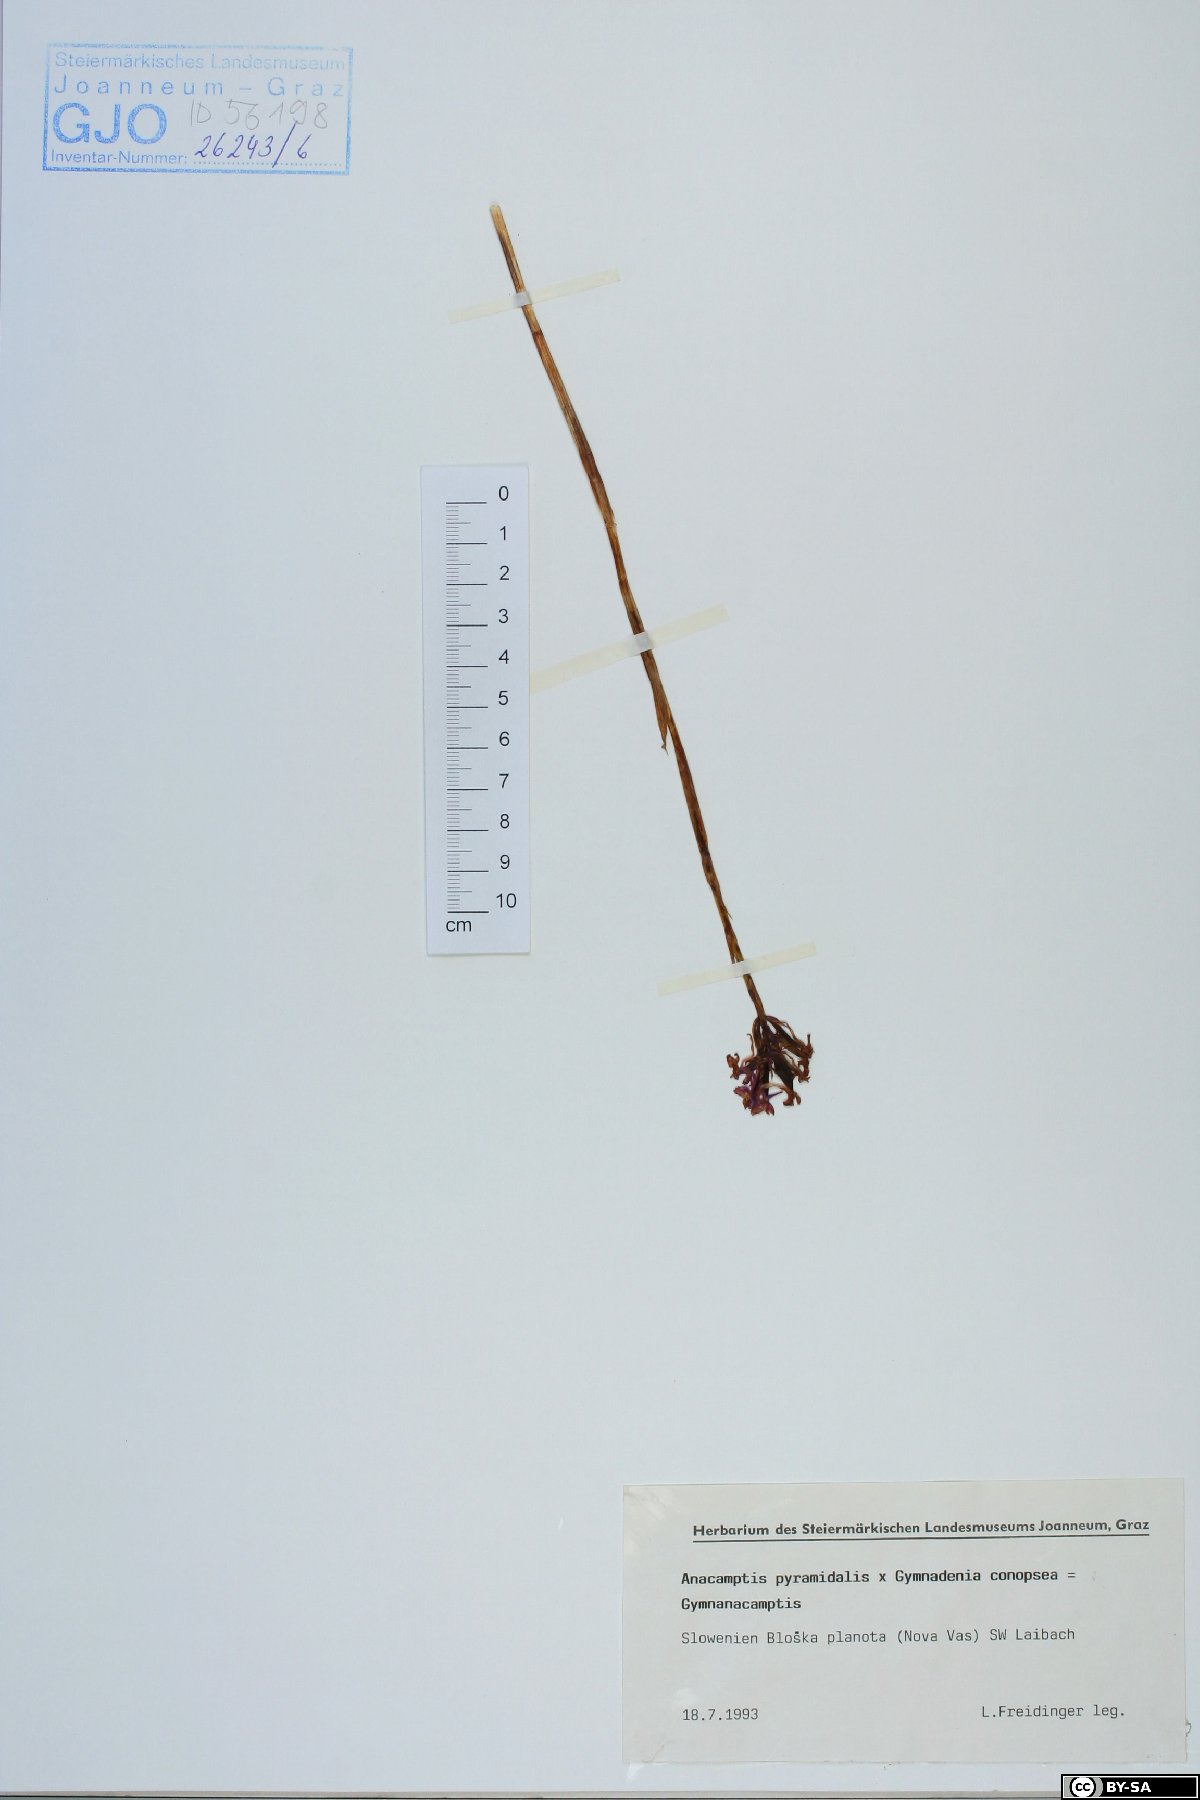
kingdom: Plantae
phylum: Tracheophyta
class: Liliopsida
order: Asparagales
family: Orchidaceae
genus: Anacamptis
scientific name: Anacamptis pyramidalis
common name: Pyramidal orchid
